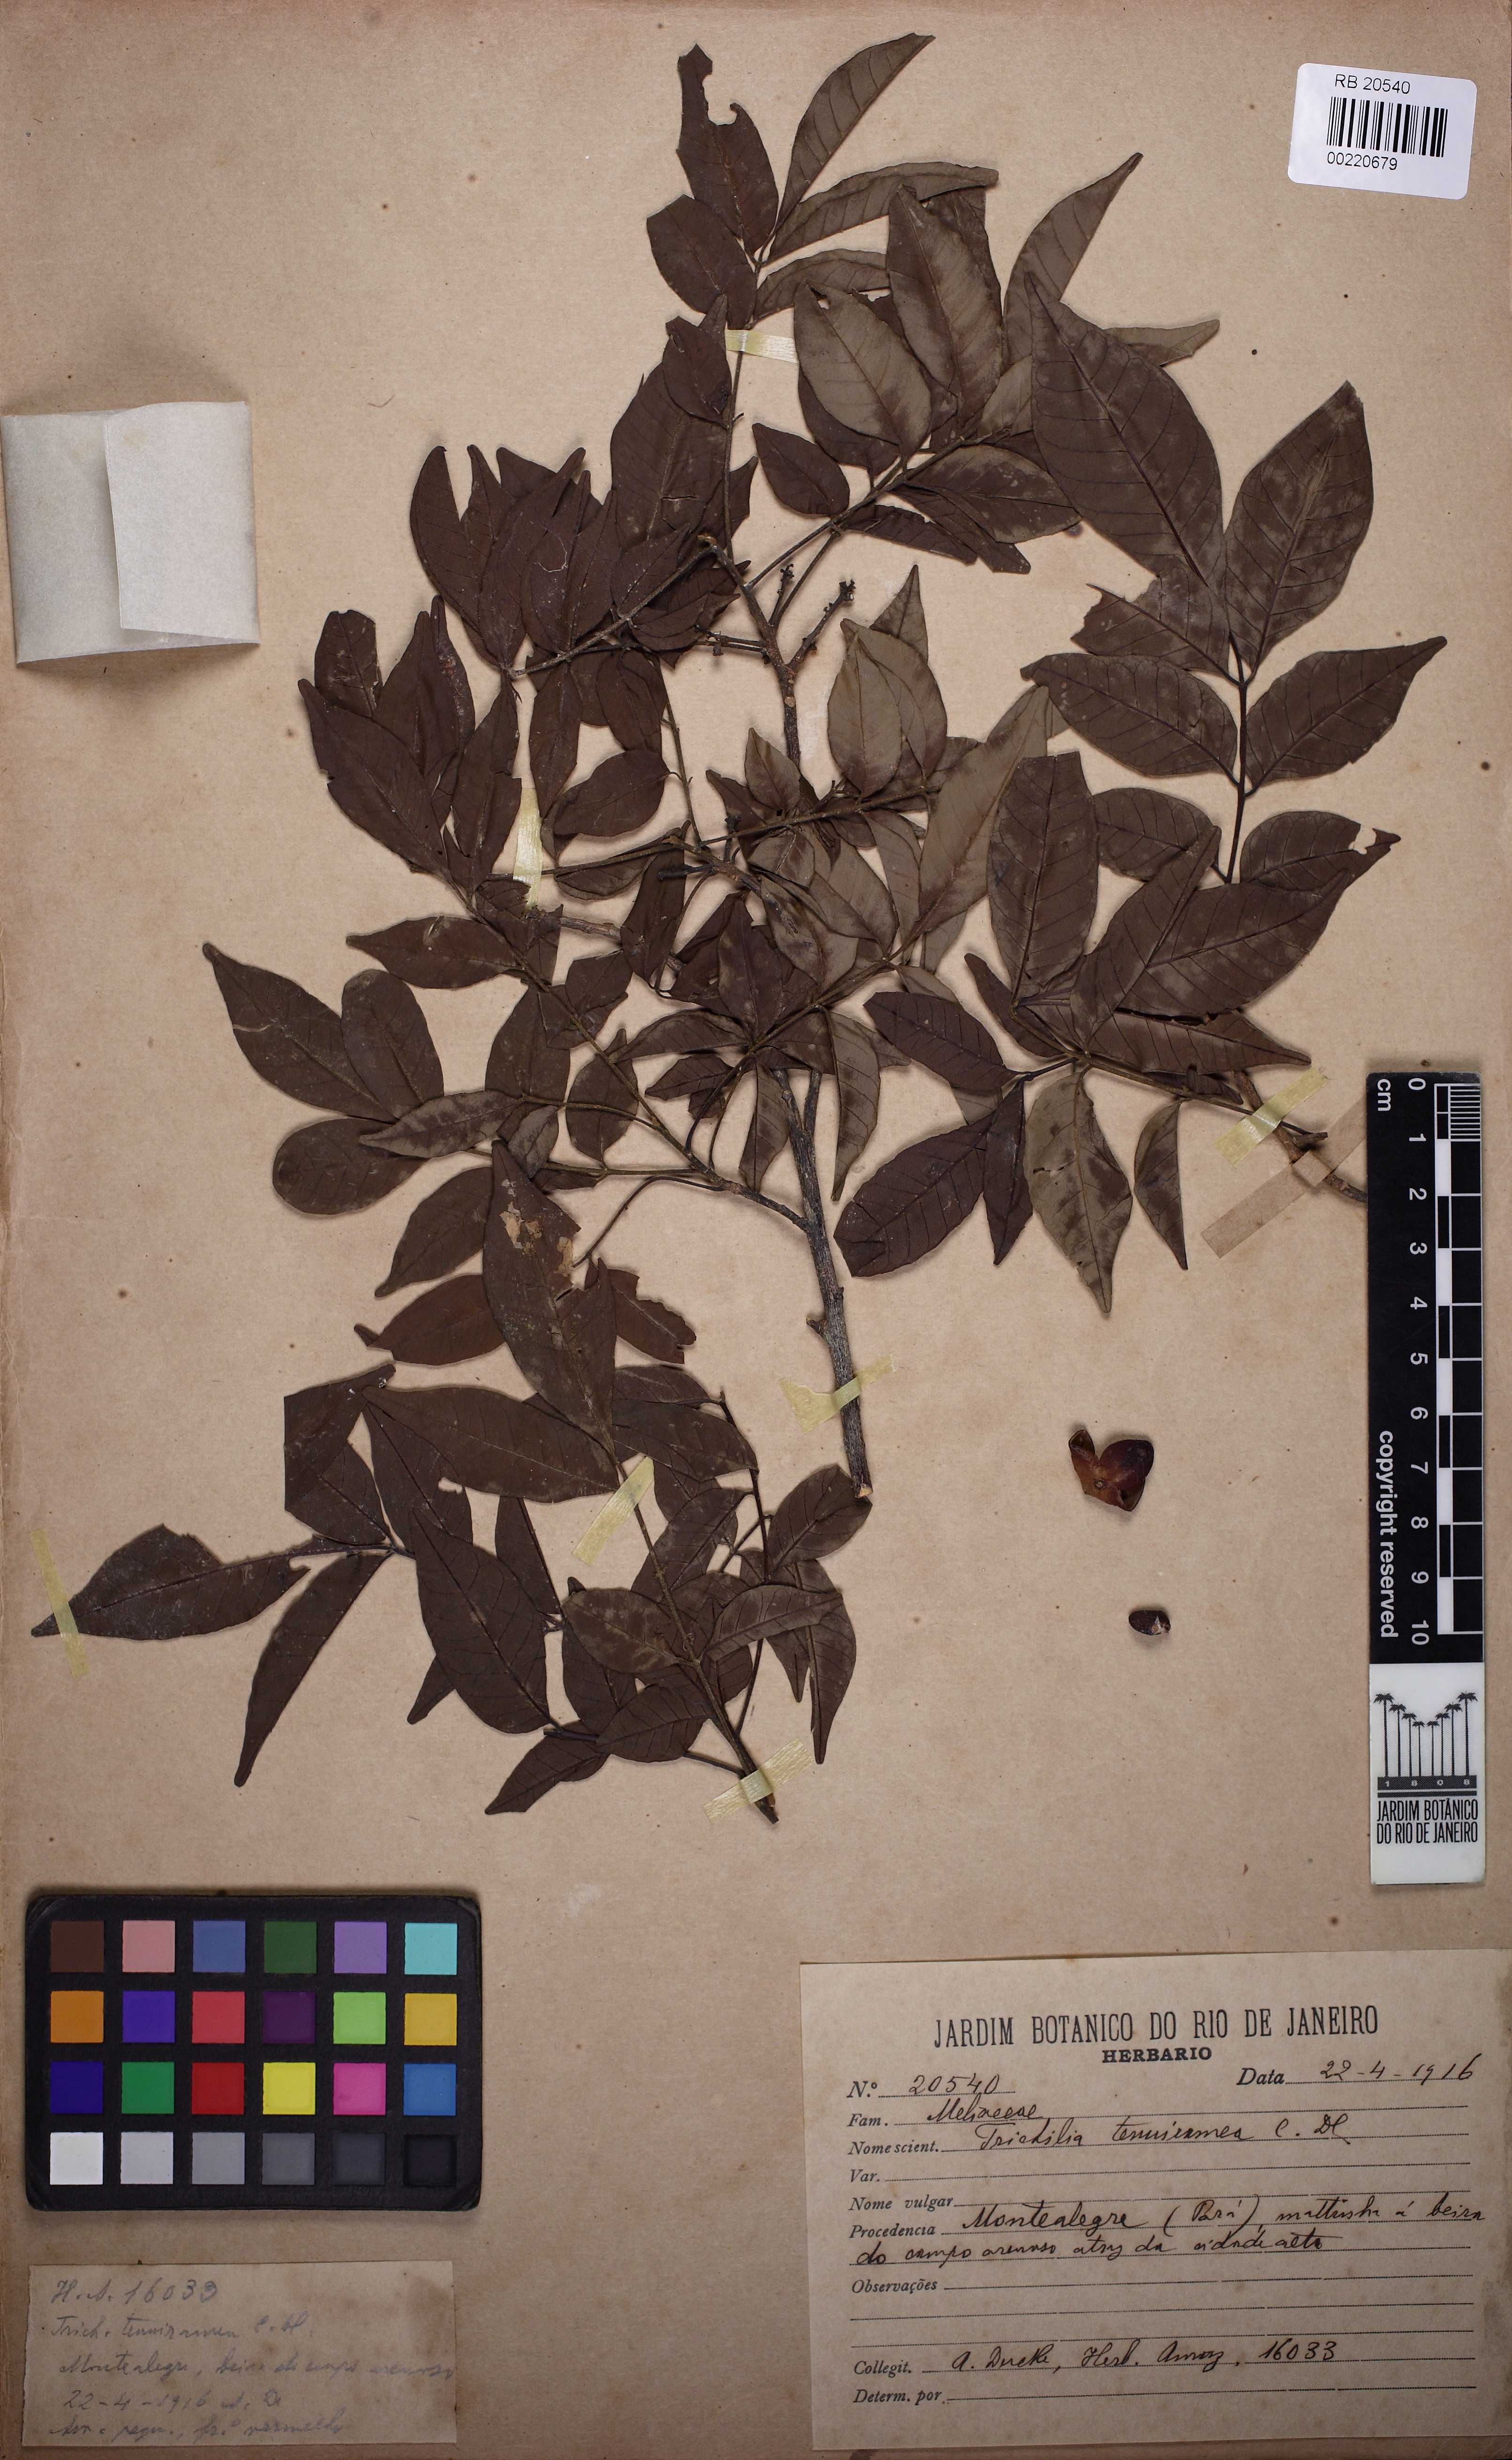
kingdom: Plantae
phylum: Tracheophyta
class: Magnoliopsida
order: Sapindales
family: Meliaceae
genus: Trichilia
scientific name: Trichilia elegans
